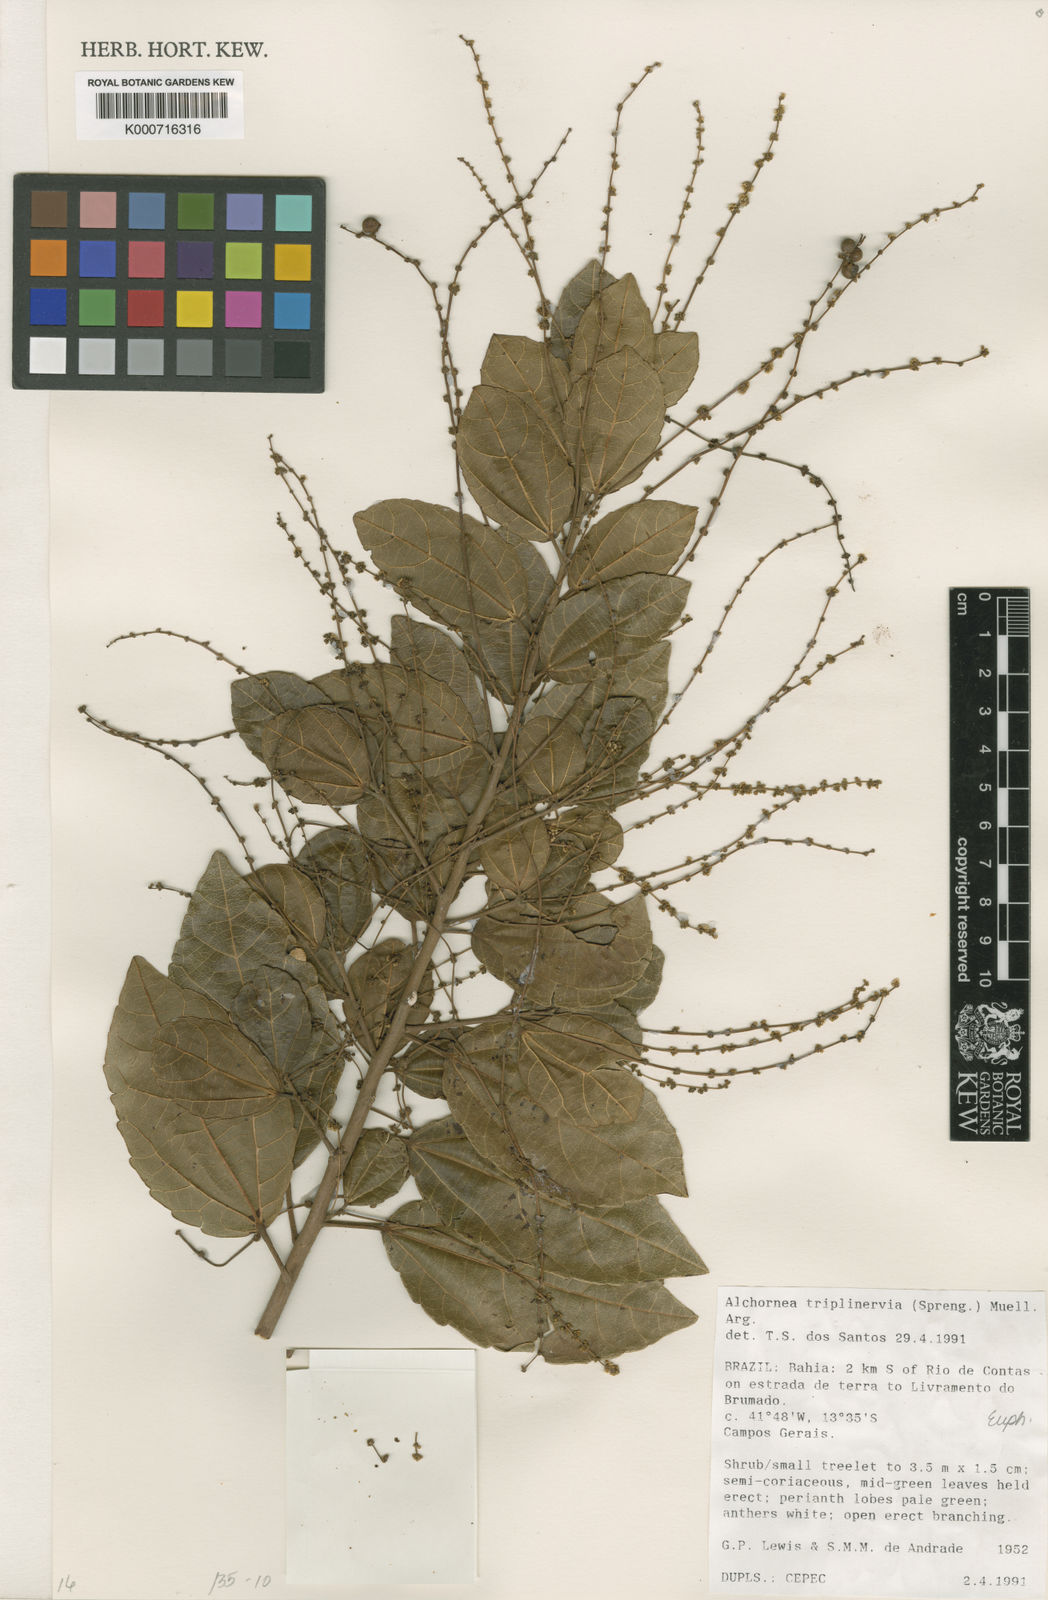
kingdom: Plantae
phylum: Tracheophyta
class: Magnoliopsida
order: Malpighiales
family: Euphorbiaceae
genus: Alchornea
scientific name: Alchornea
